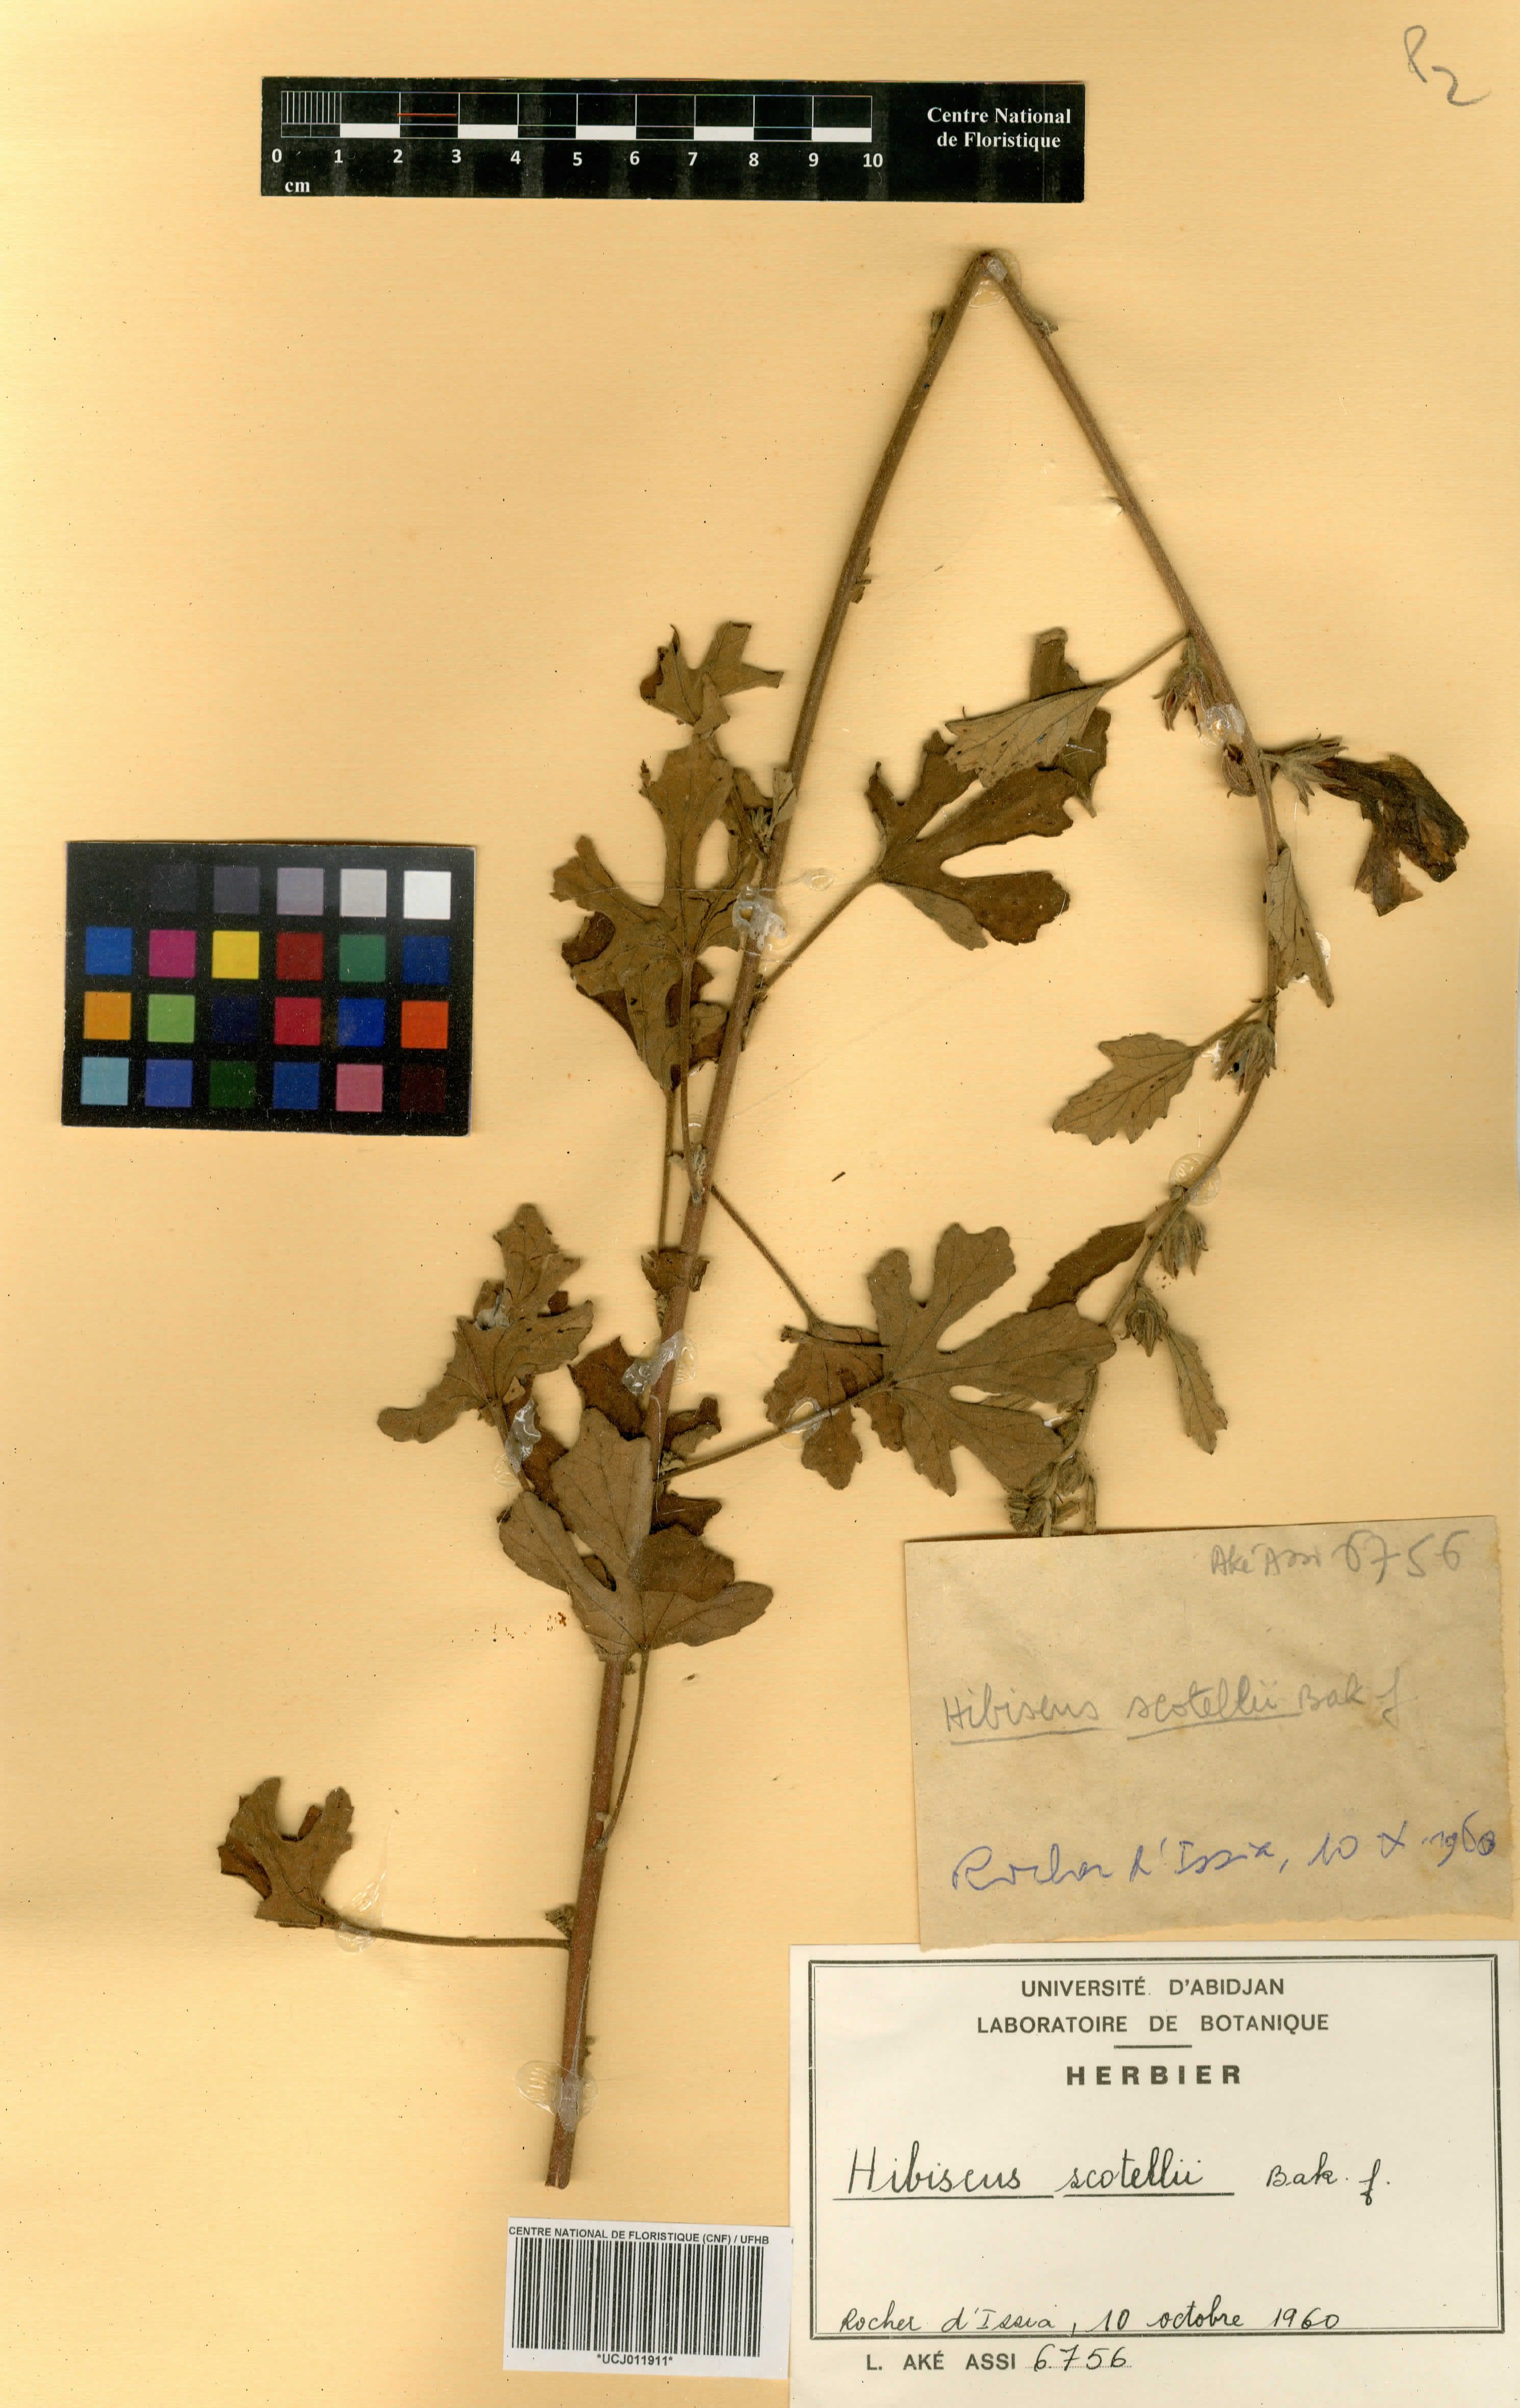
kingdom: Plantae
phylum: Tracheophyta
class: Magnoliopsida
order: Malvales
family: Malvaceae
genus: Hibiscus
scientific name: Hibiscus scotellii
